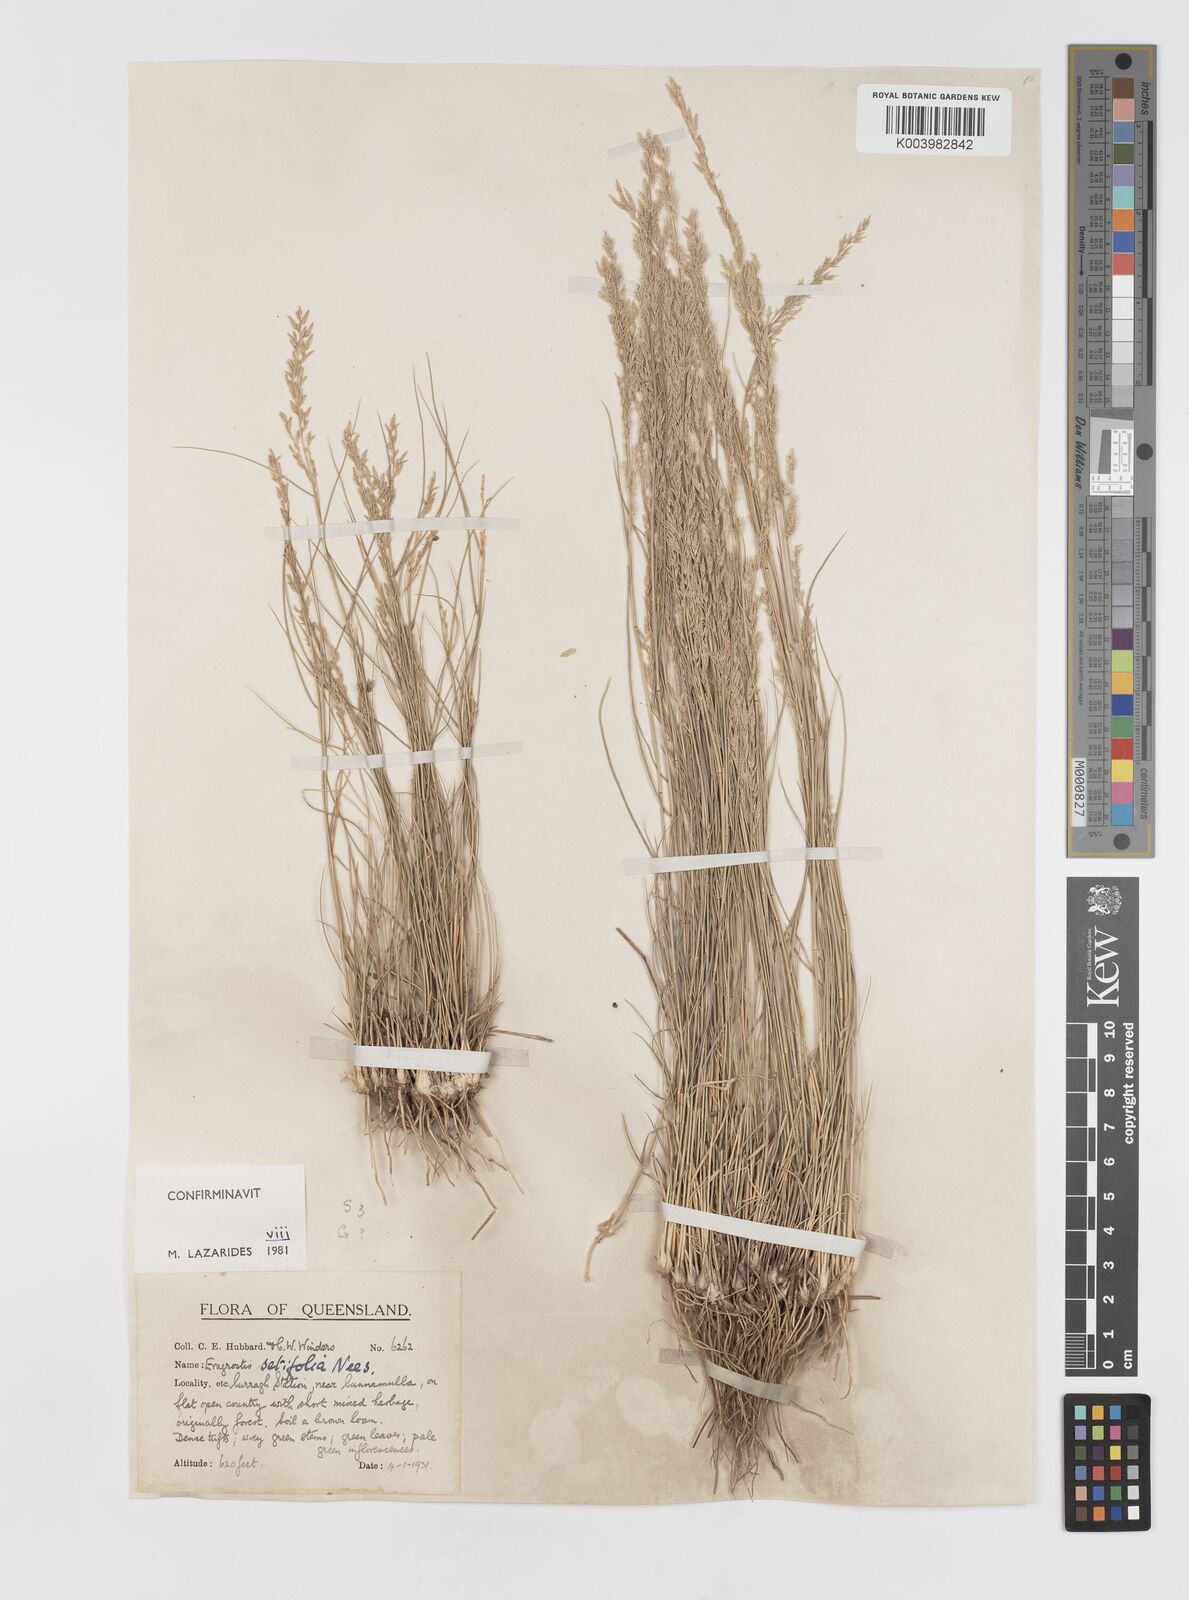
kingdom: Plantae
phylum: Tracheophyta
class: Liliopsida
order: Poales
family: Poaceae
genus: Eragrostis
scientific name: Eragrostis setifolia
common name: Bristleleaf lovegrass
